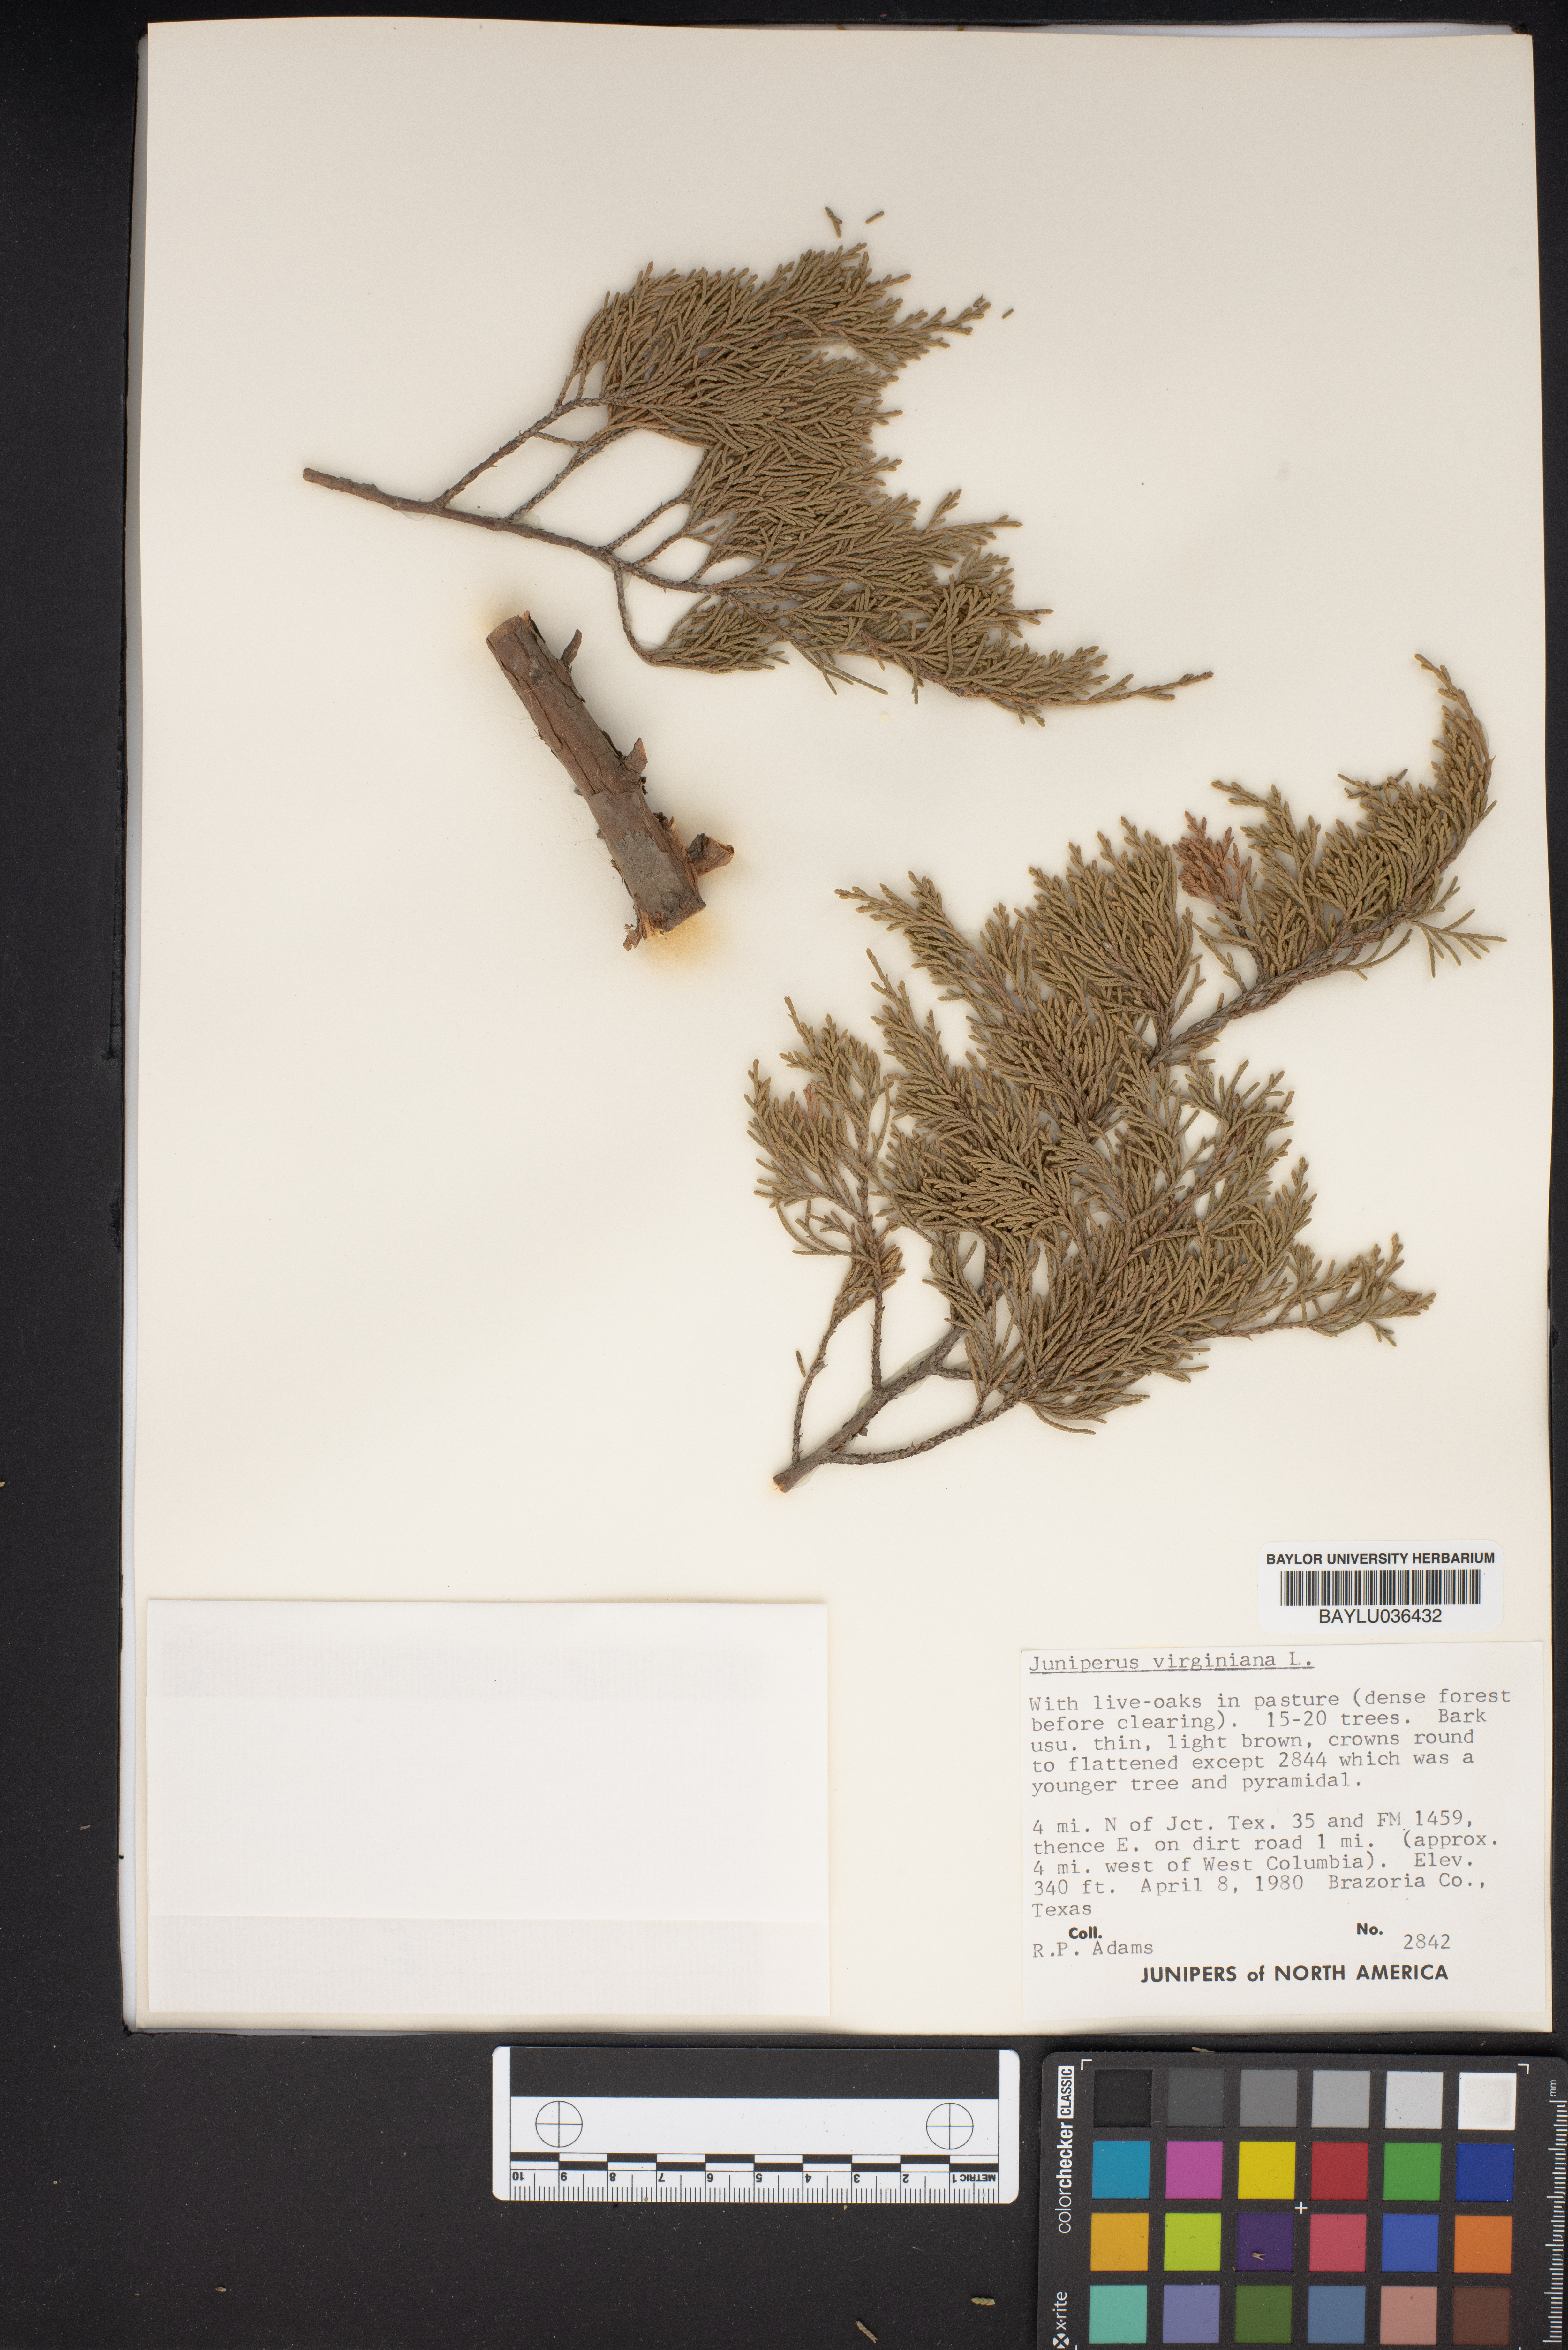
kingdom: Plantae
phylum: Tracheophyta
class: Pinopsida
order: Pinales
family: Cupressaceae
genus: Juniperus
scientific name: Juniperus virginiana
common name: Red juniper
